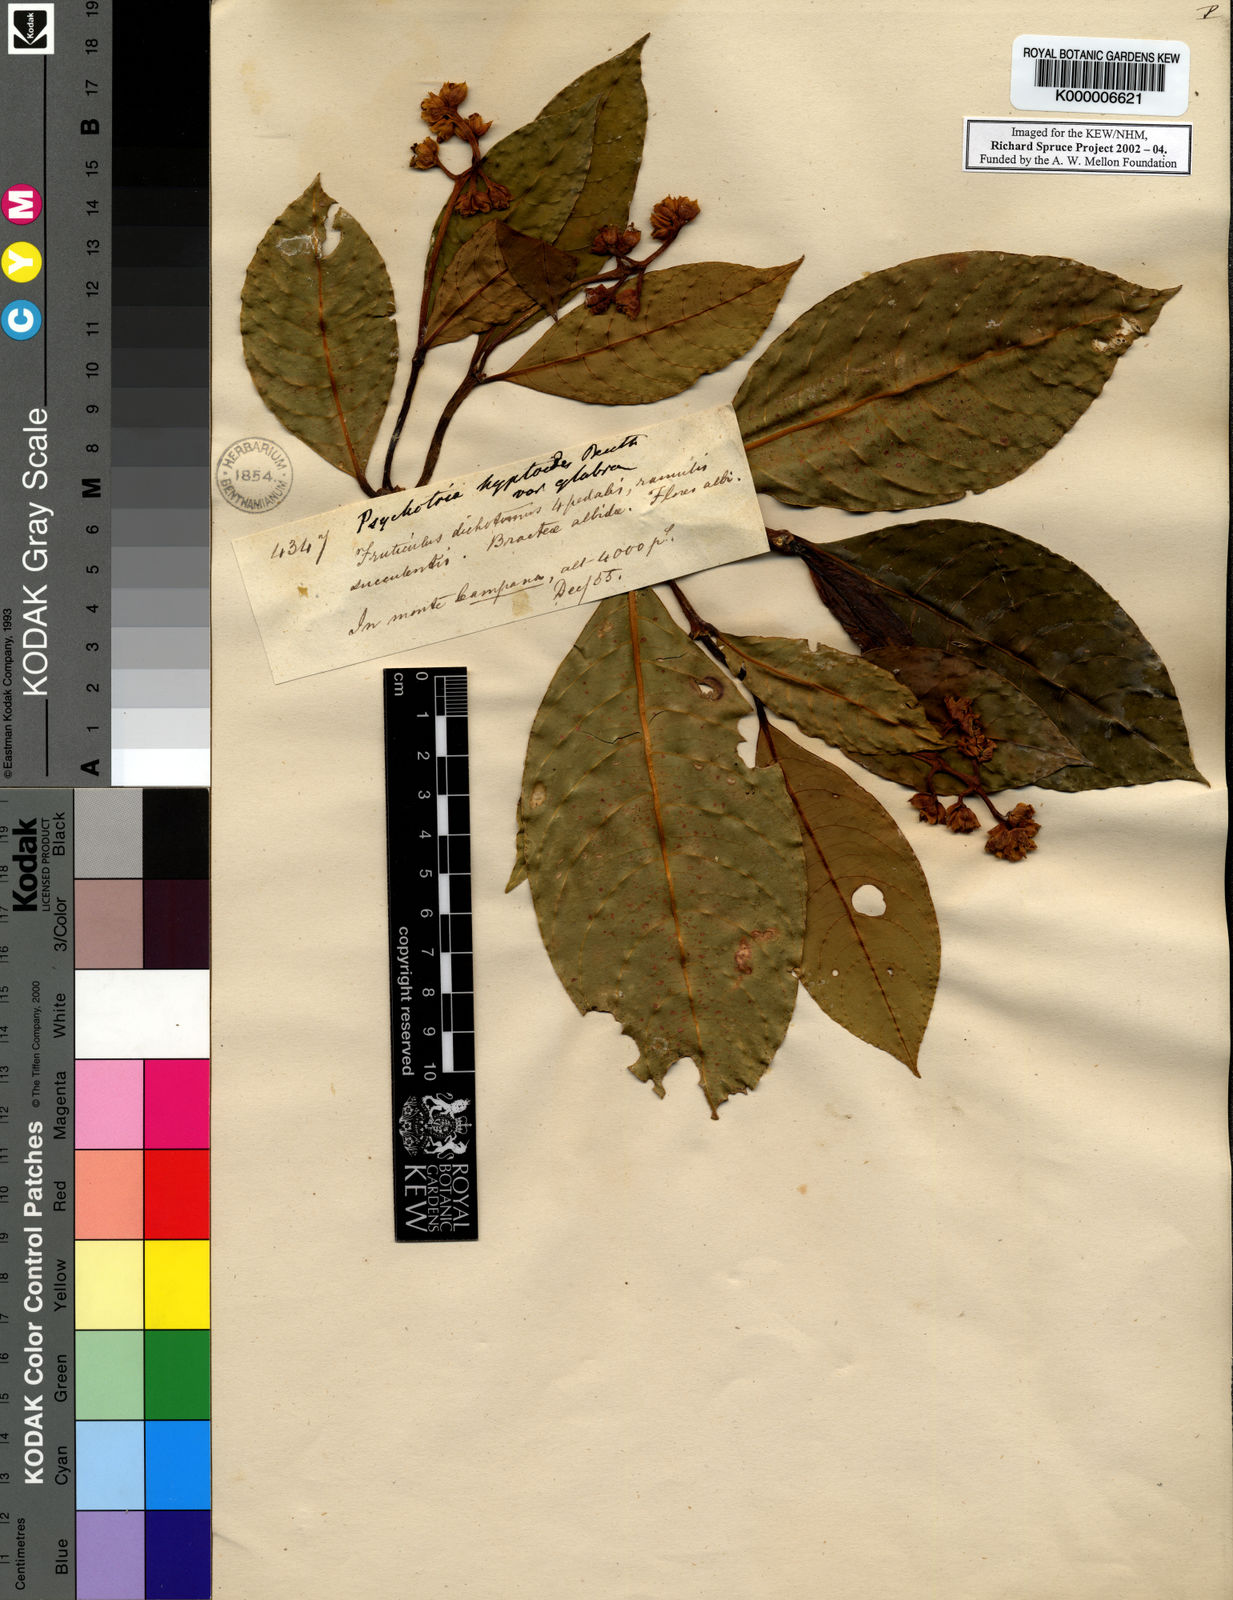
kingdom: Plantae
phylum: Tracheophyta
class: Magnoliopsida
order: Gentianales
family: Rubiaceae
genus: Palicourea
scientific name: Palicourea hyptoides
